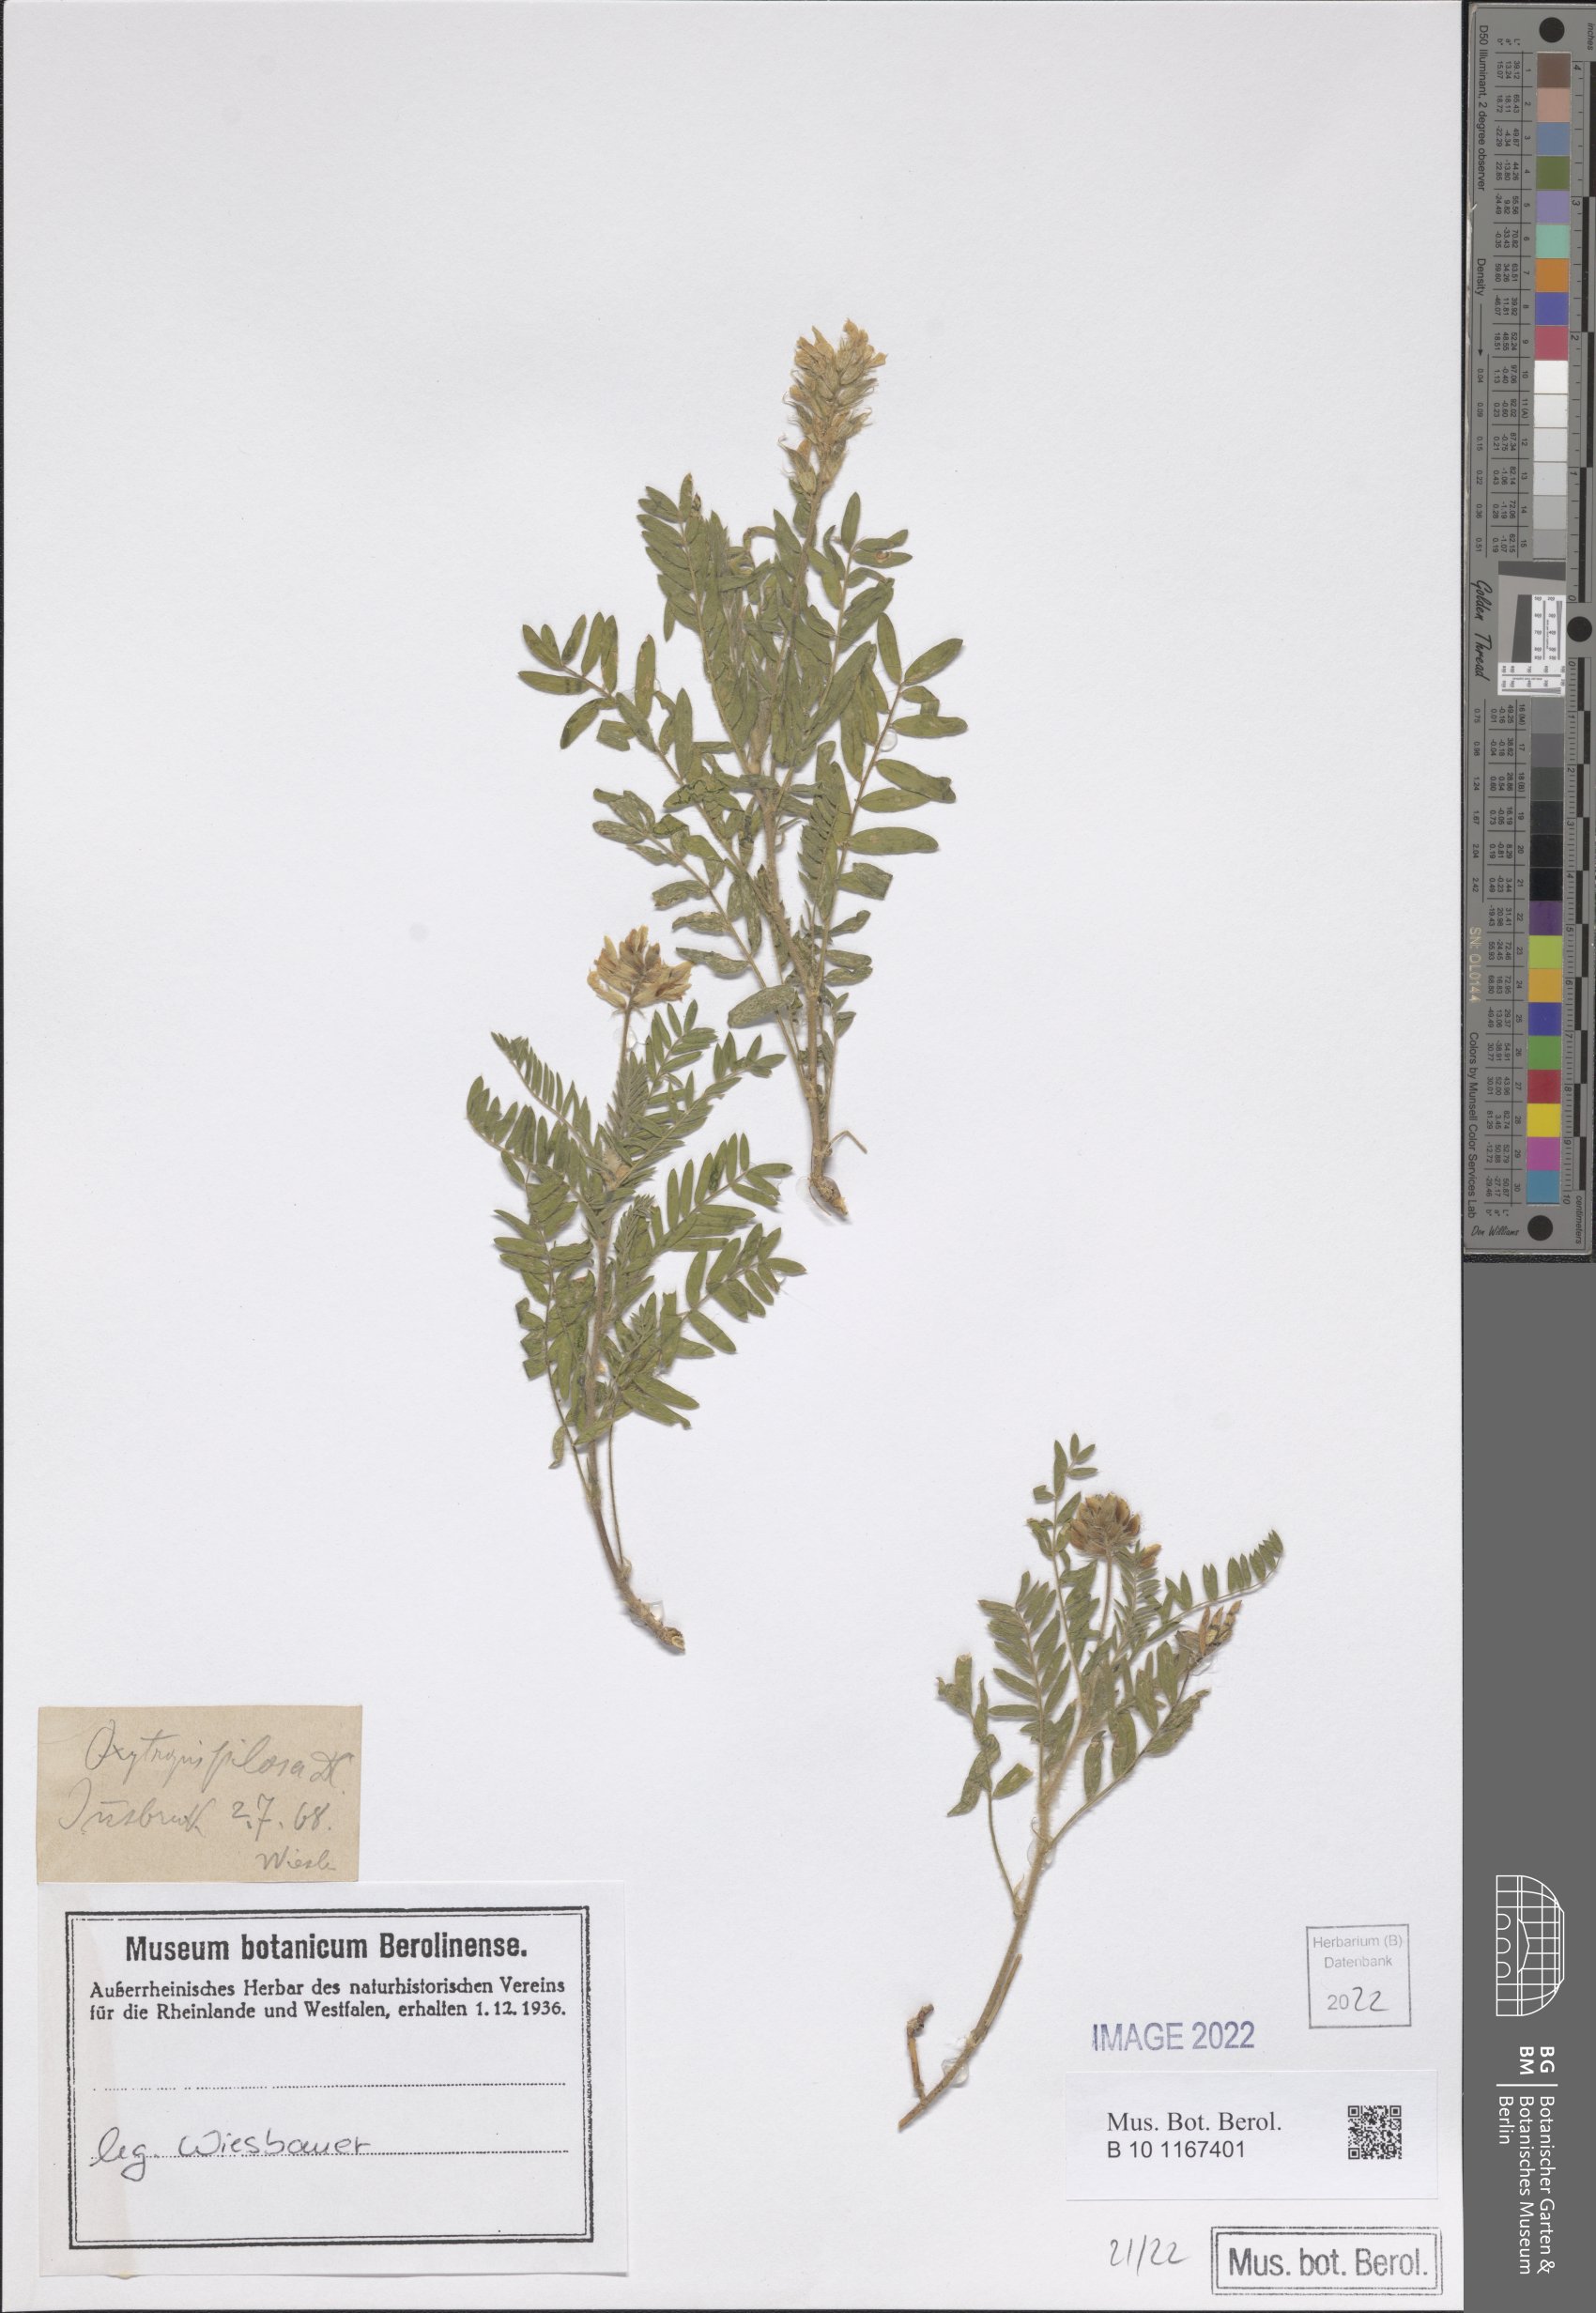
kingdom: Plantae
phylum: Tracheophyta
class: Magnoliopsida
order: Fabales
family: Fabaceae
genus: Oxytropis
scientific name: Oxytropis pilosa
